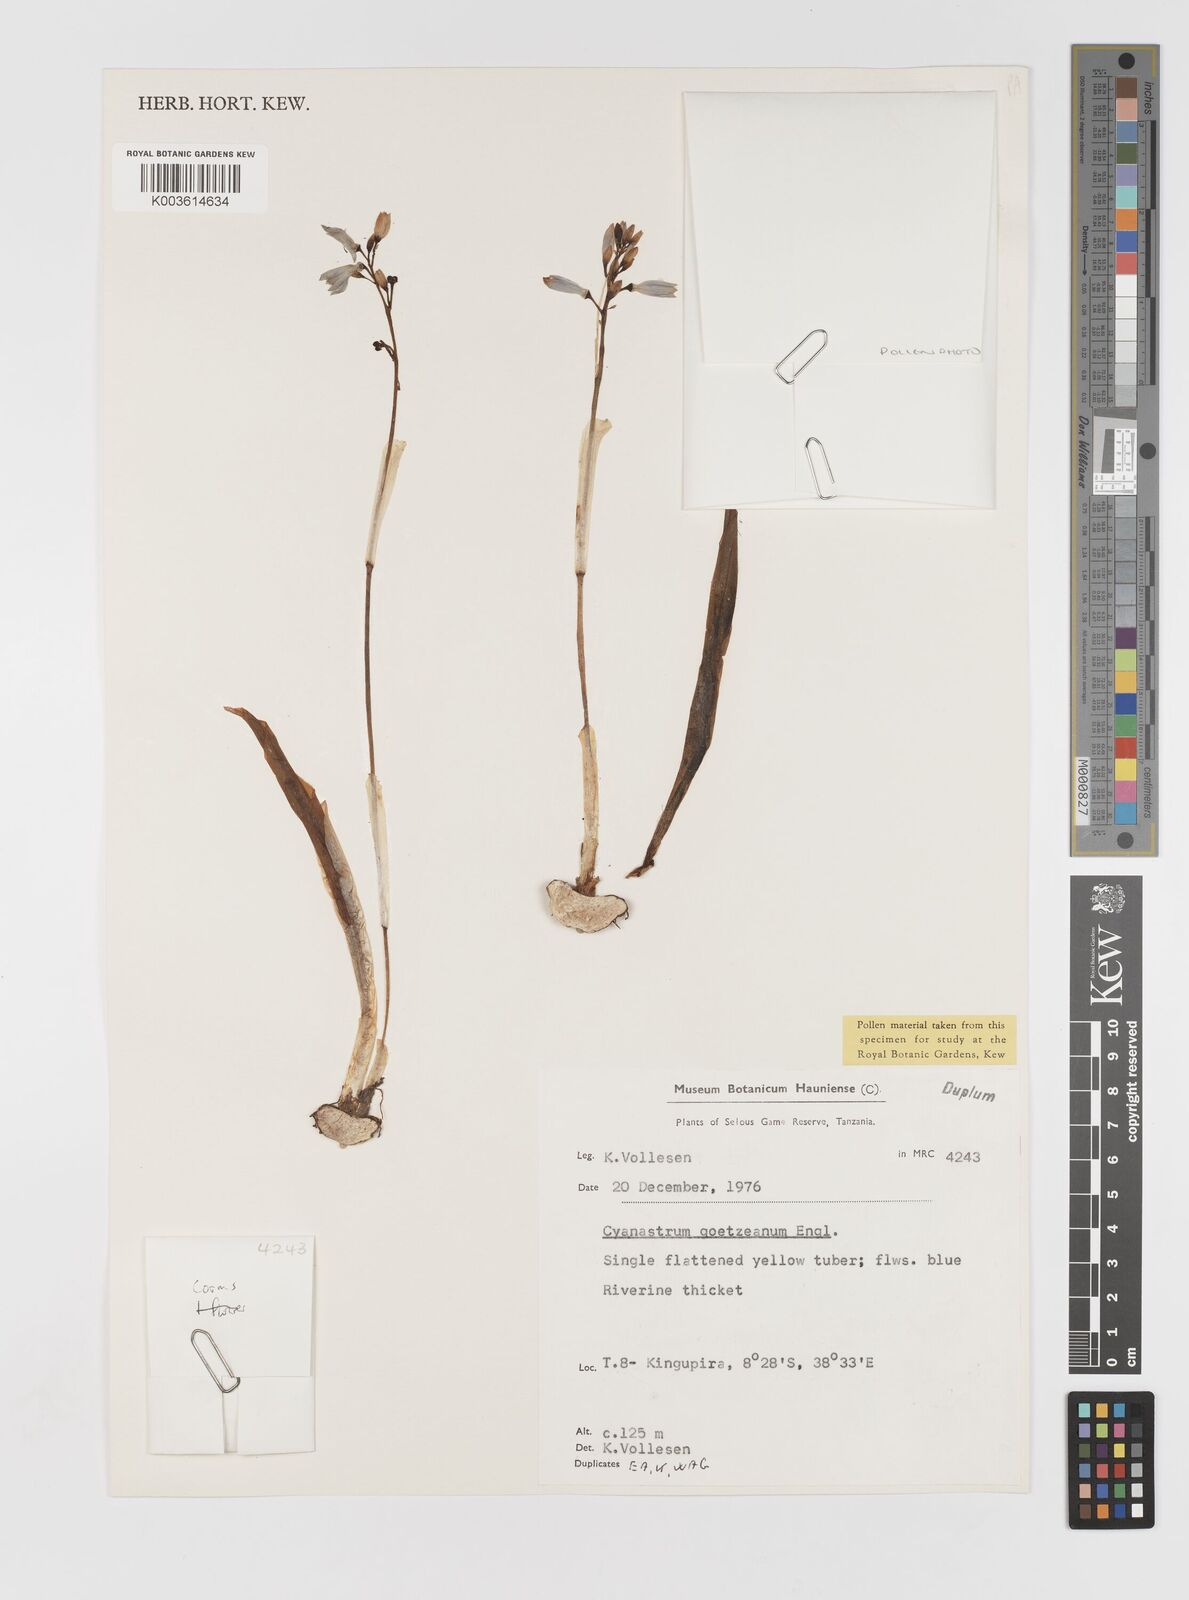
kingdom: Plantae
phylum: Tracheophyta
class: Liliopsida
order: Asparagales
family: Tecophilaeaceae
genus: Cyanastrum
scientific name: Cyanastrum goetzeanum
